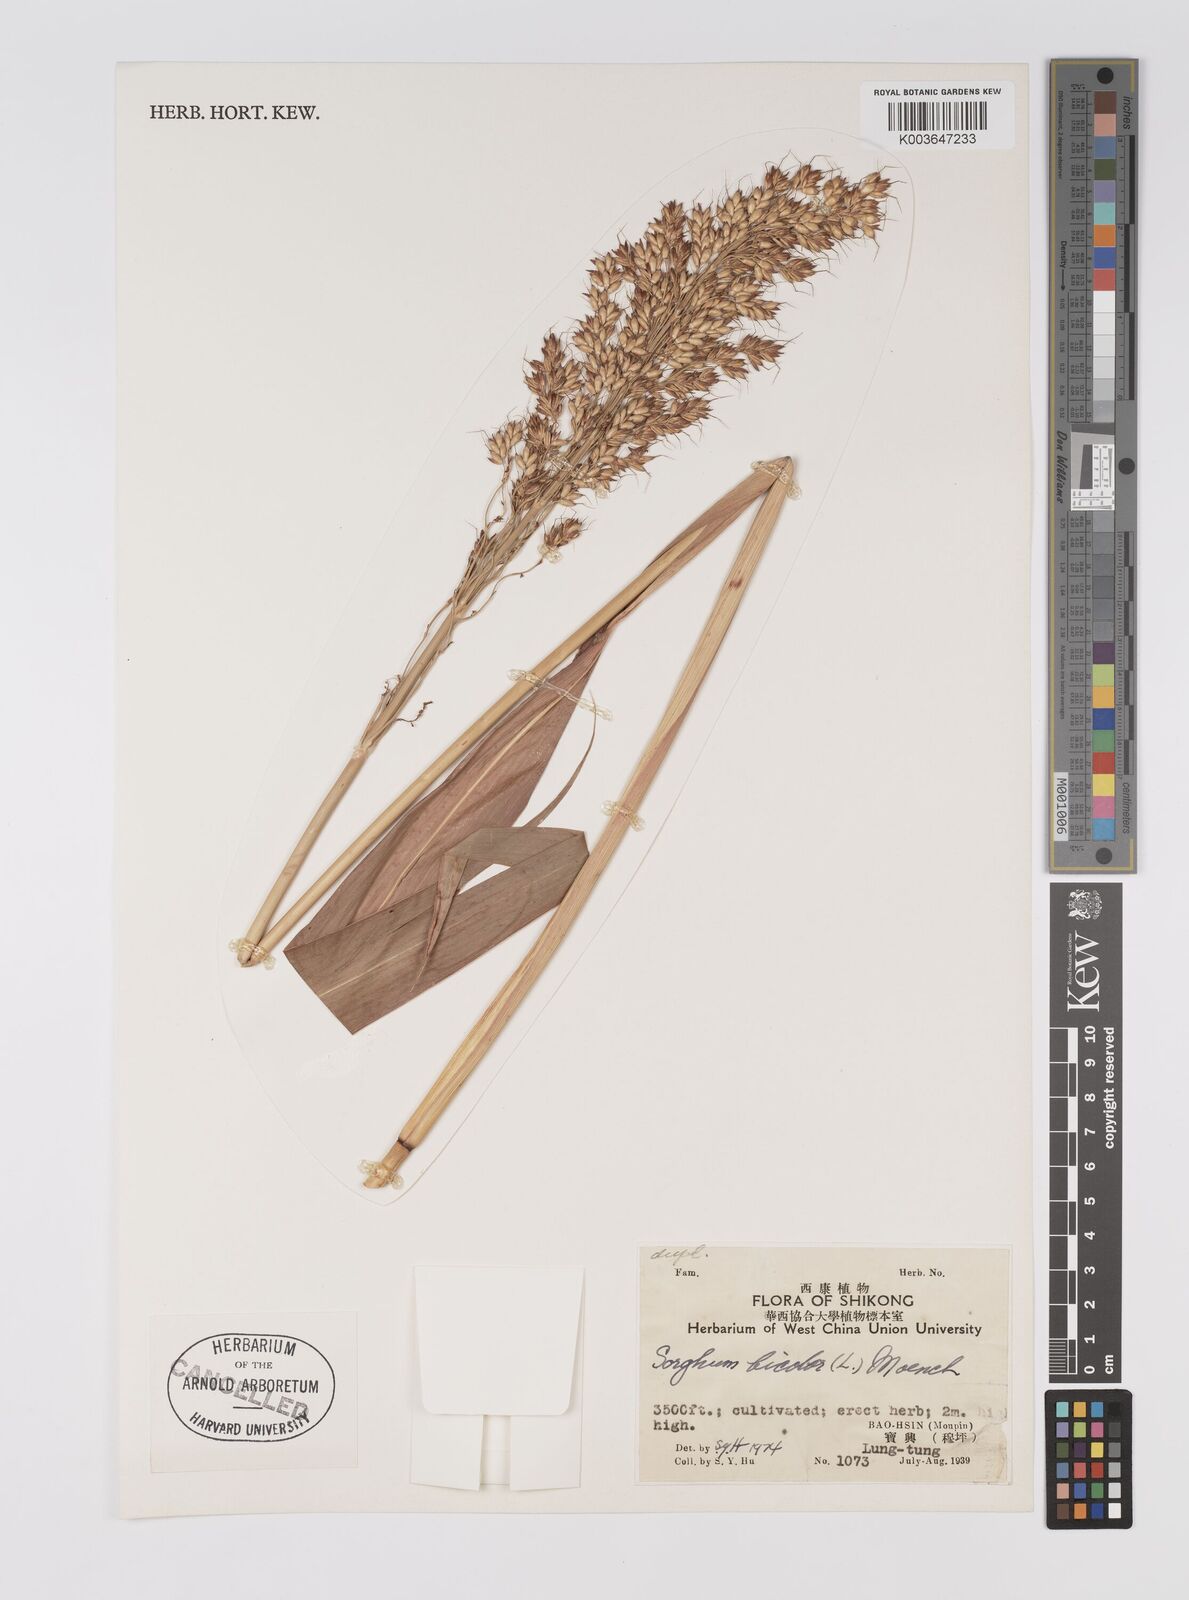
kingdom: Plantae
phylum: Tracheophyta
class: Liliopsida
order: Poales
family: Poaceae
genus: Hyparrhenia
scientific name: Hyparrhenia dichroa
